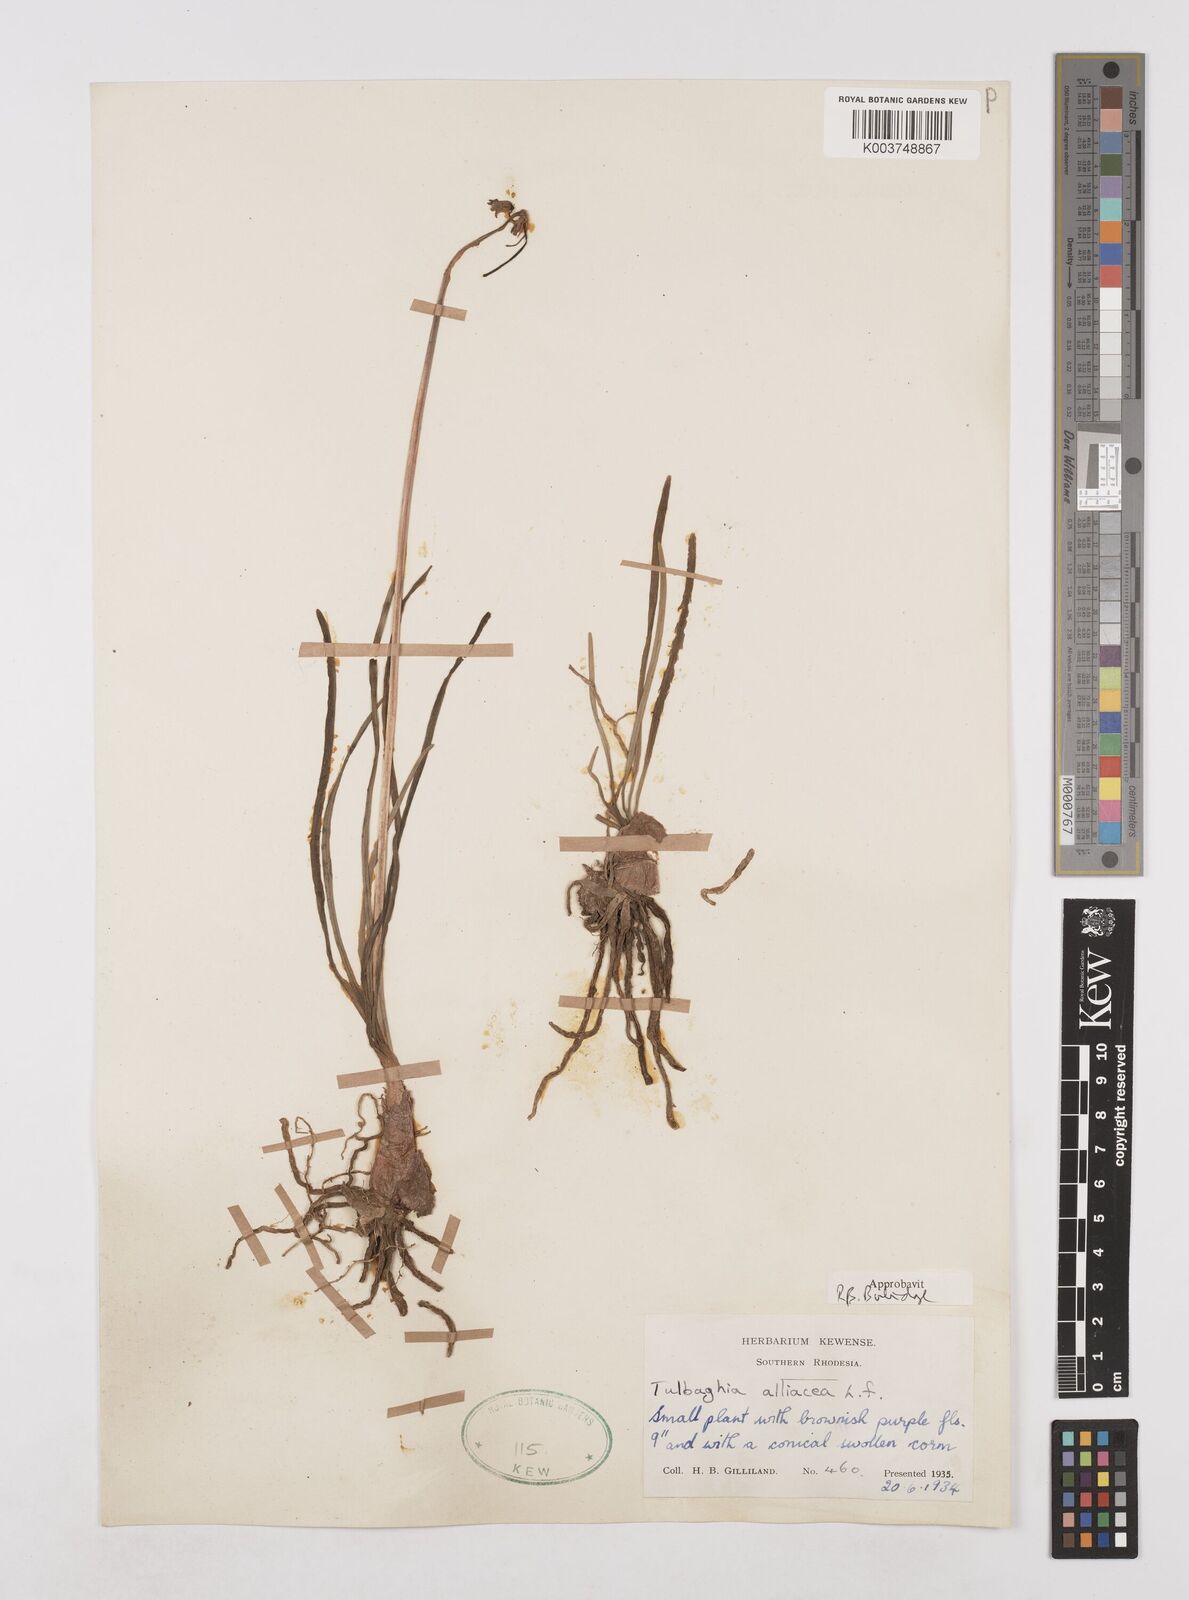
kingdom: Plantae
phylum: Tracheophyta
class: Liliopsida
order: Asparagales
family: Amaryllidaceae
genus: Tulbaghia
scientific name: Tulbaghia alliacea
